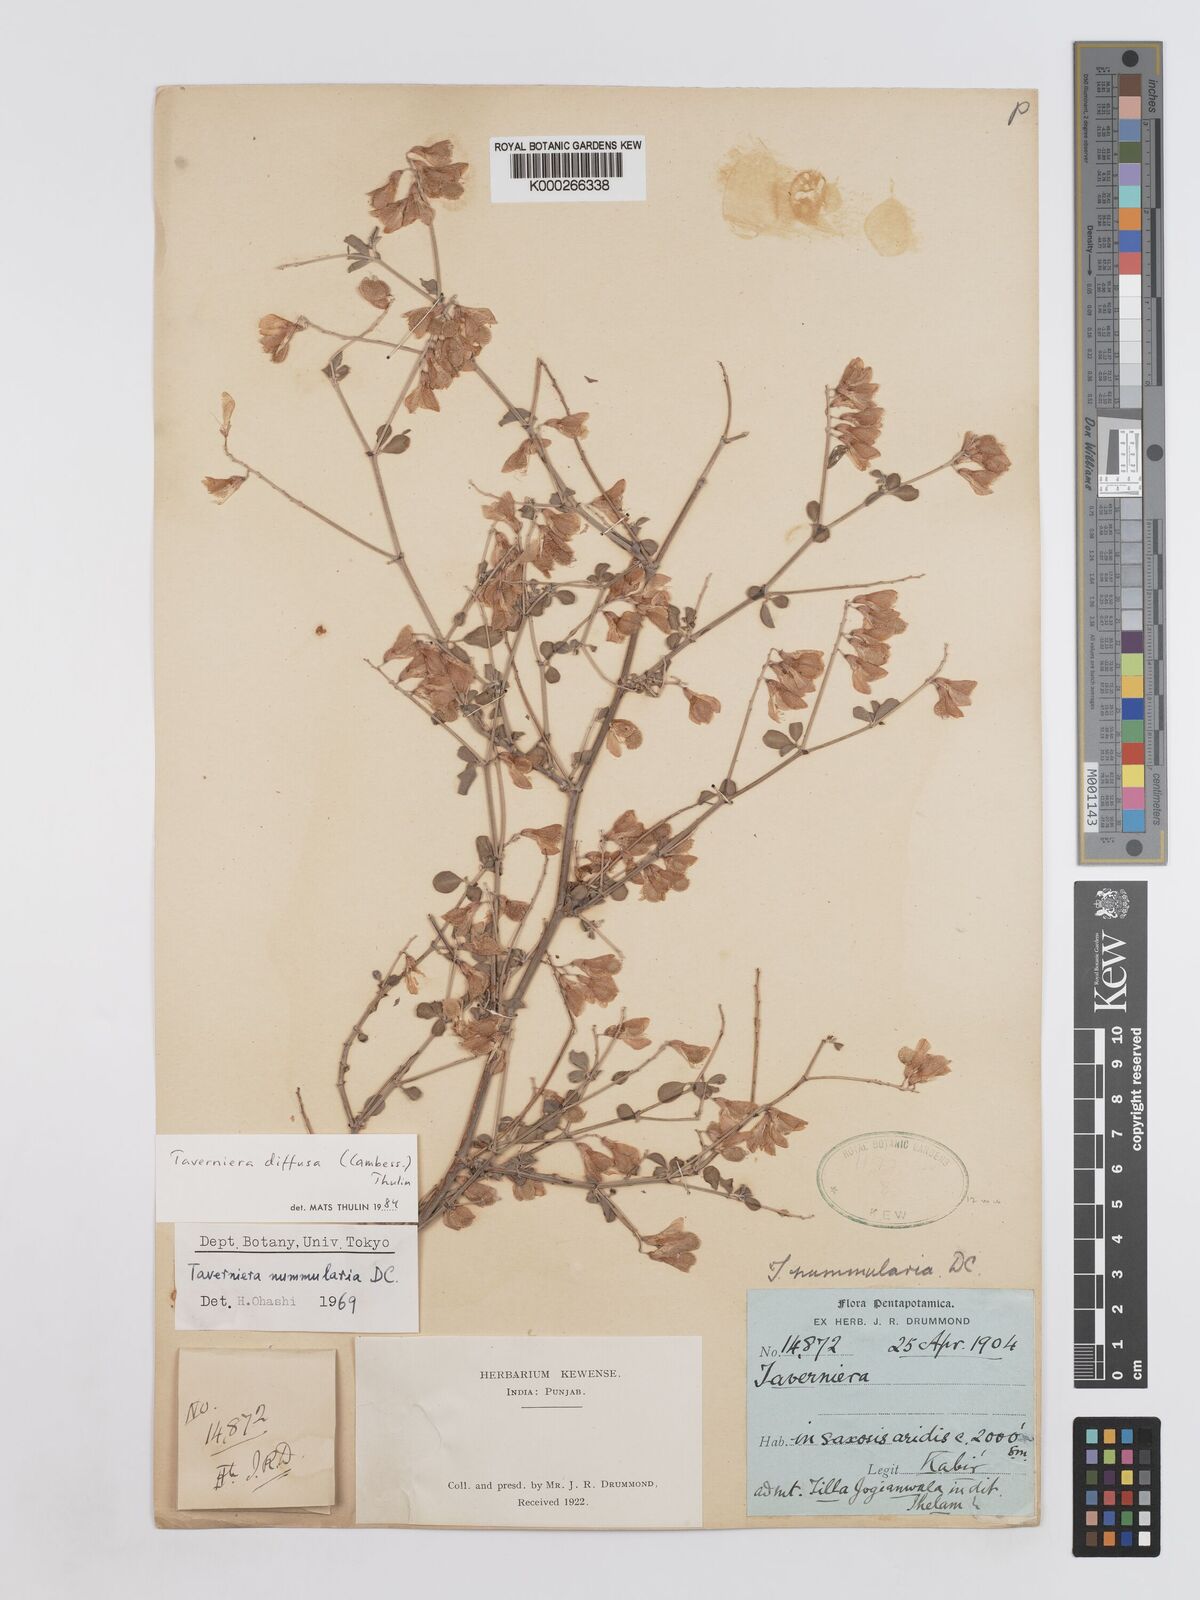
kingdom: Plantae
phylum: Tracheophyta
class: Magnoliopsida
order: Fabales
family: Fabaceae
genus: Taverniera
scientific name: Taverniera diffusa
